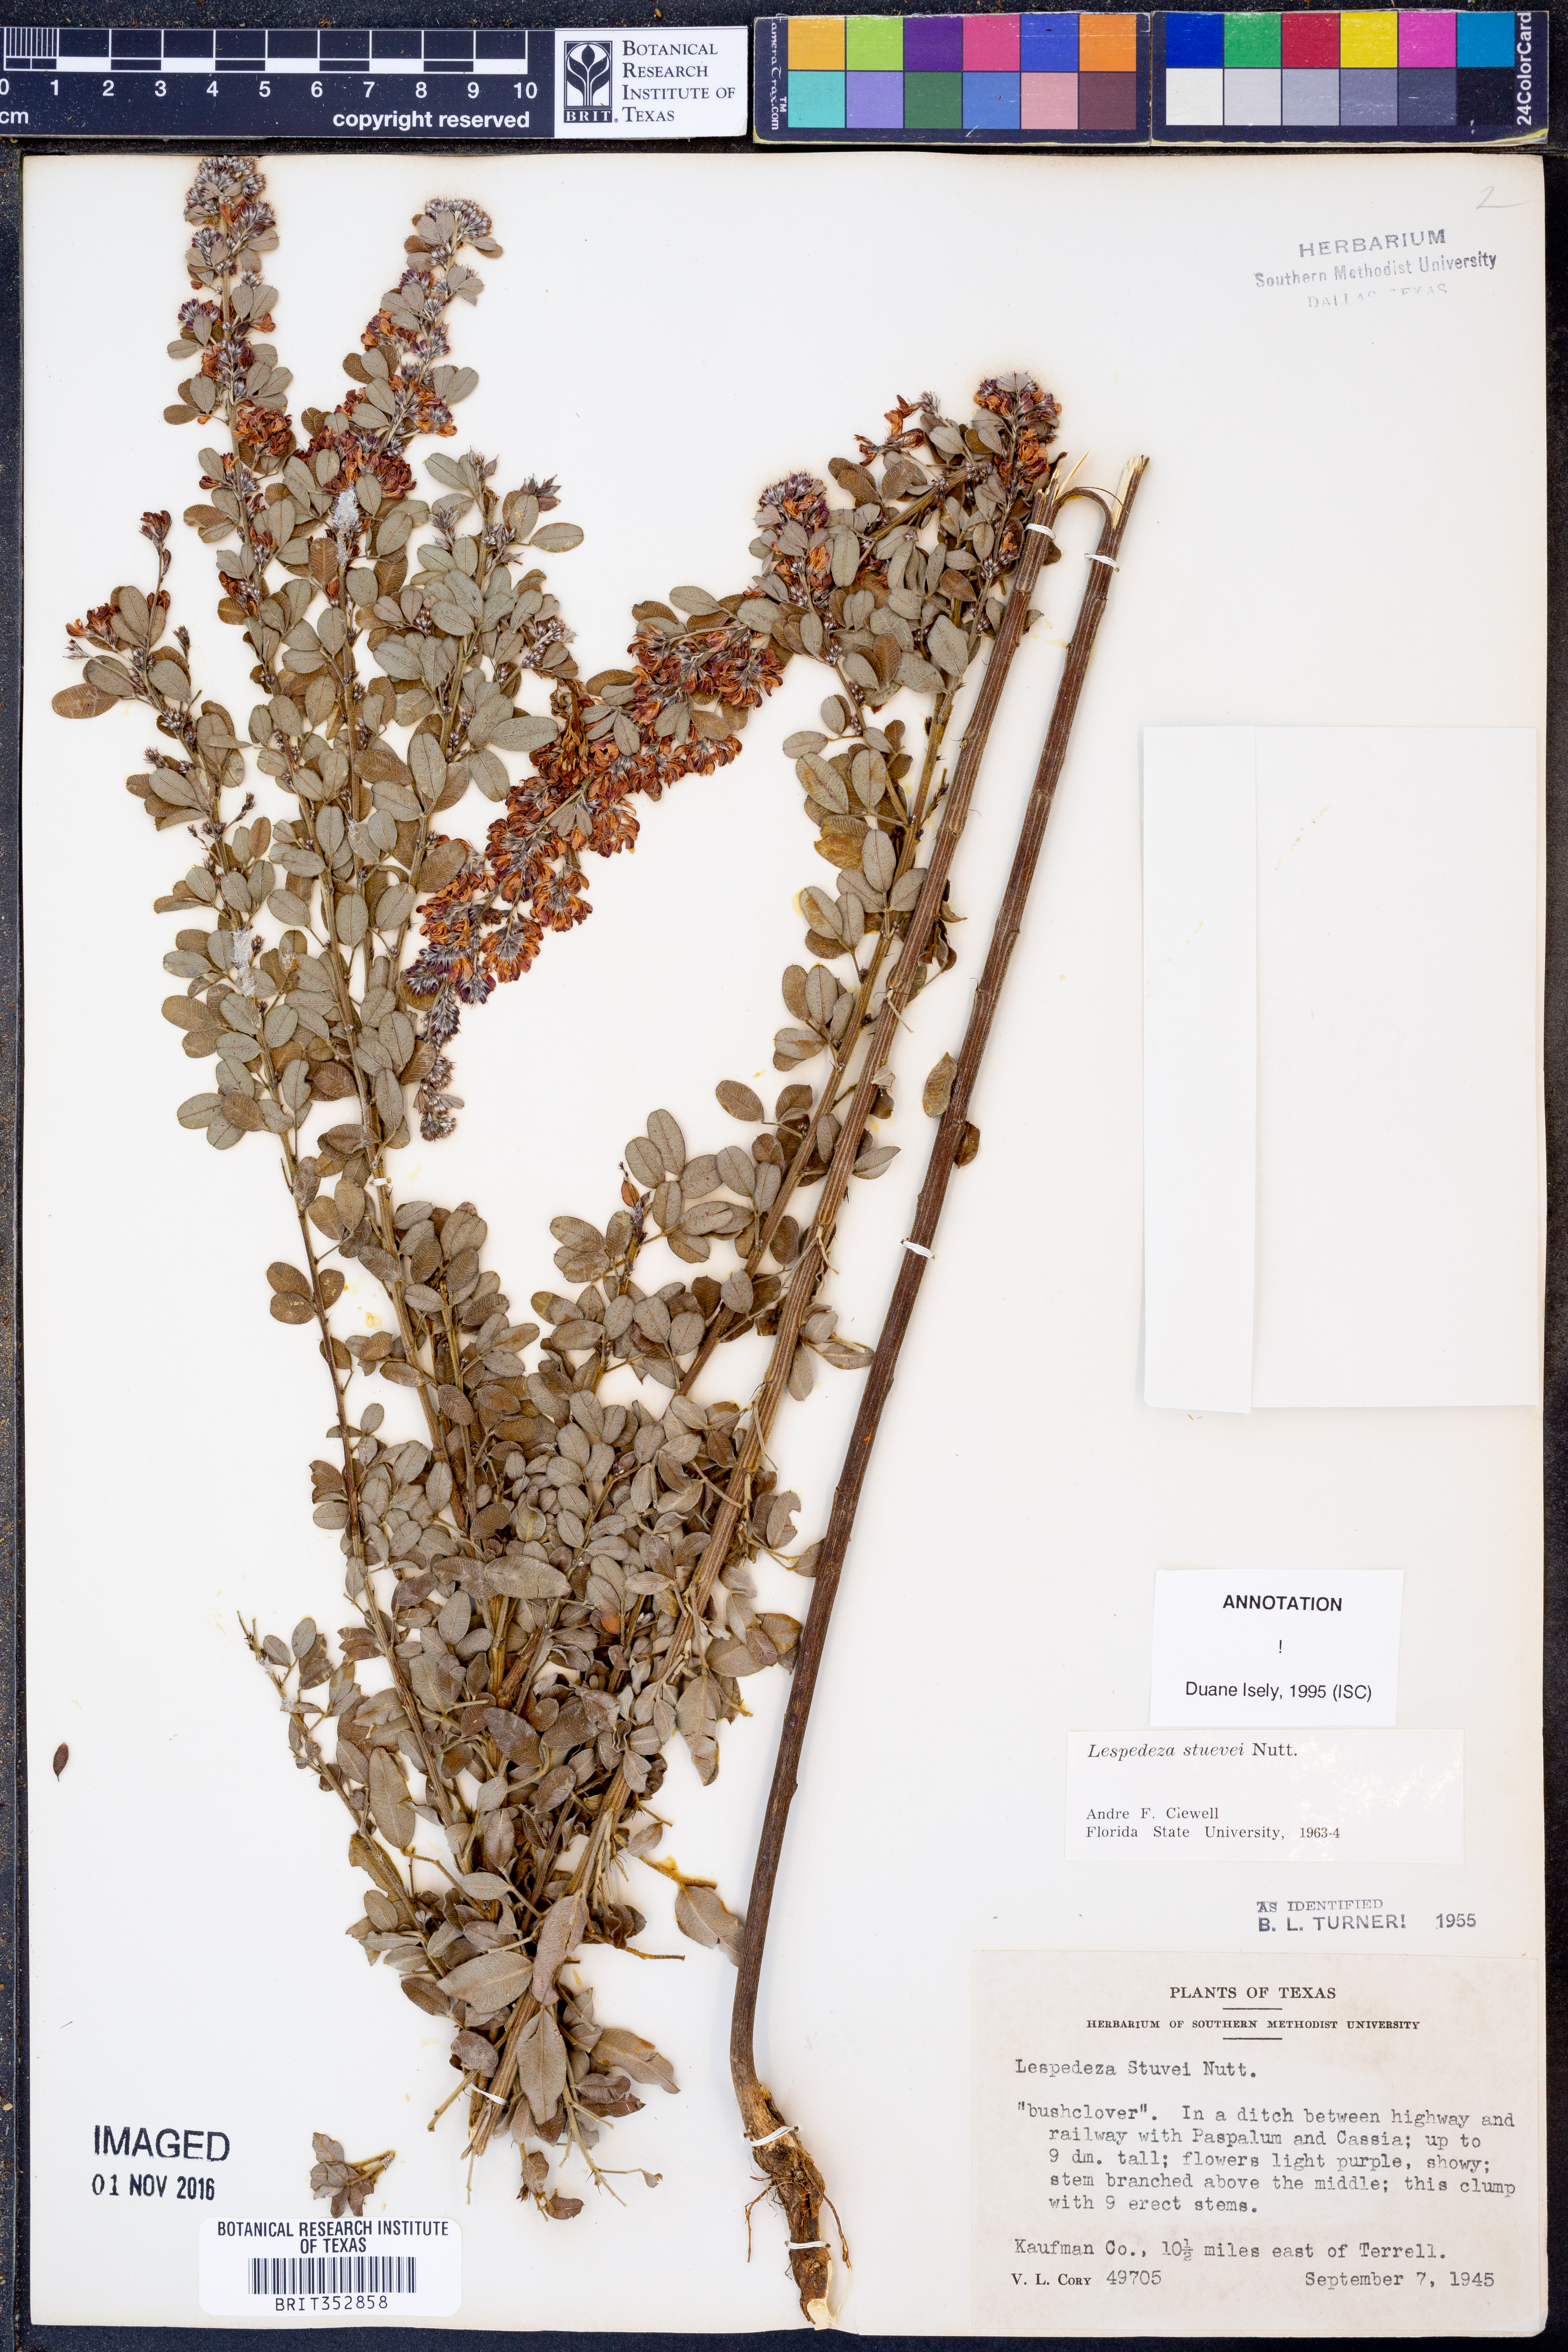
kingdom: Plantae
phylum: Tracheophyta
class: Magnoliopsida
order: Fabales
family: Fabaceae
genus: Lespedeza
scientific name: Lespedeza stuevei
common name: Tall bush-clover
